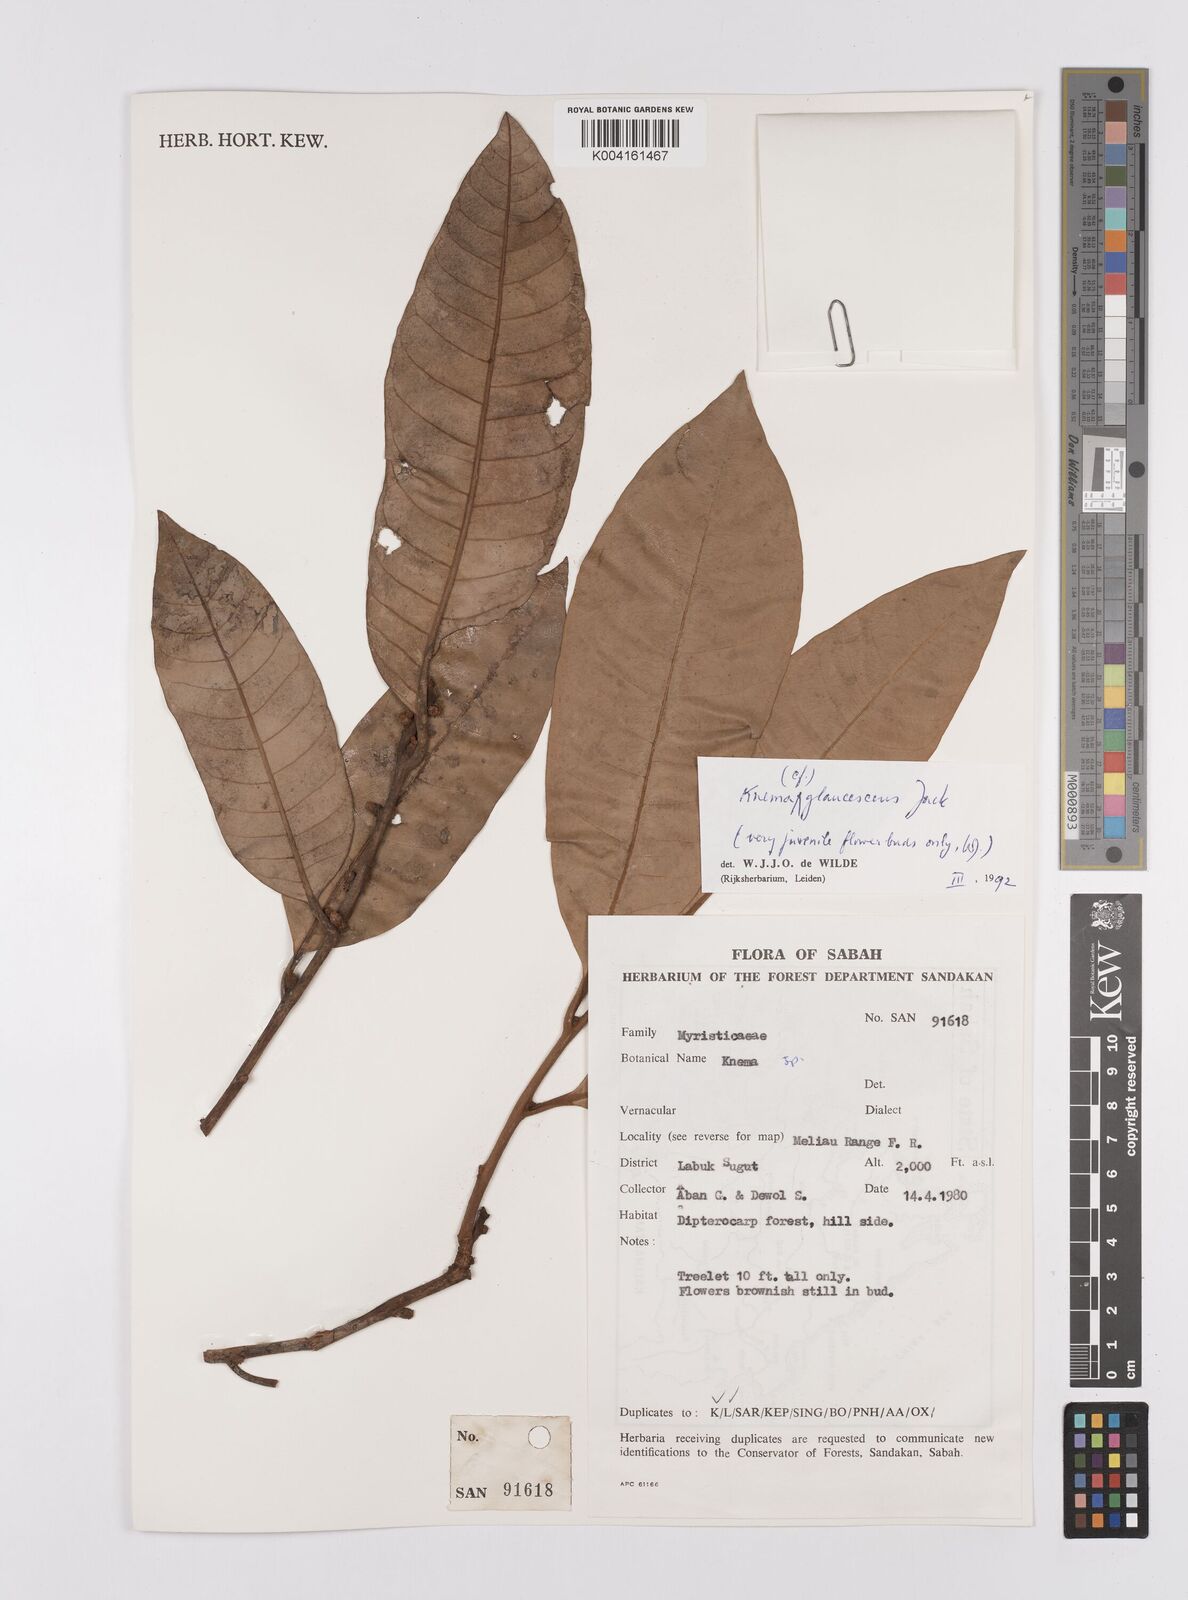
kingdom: Plantae
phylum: Tracheophyta
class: Magnoliopsida
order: Magnoliales
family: Myristicaceae
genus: Knema
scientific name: Knema
